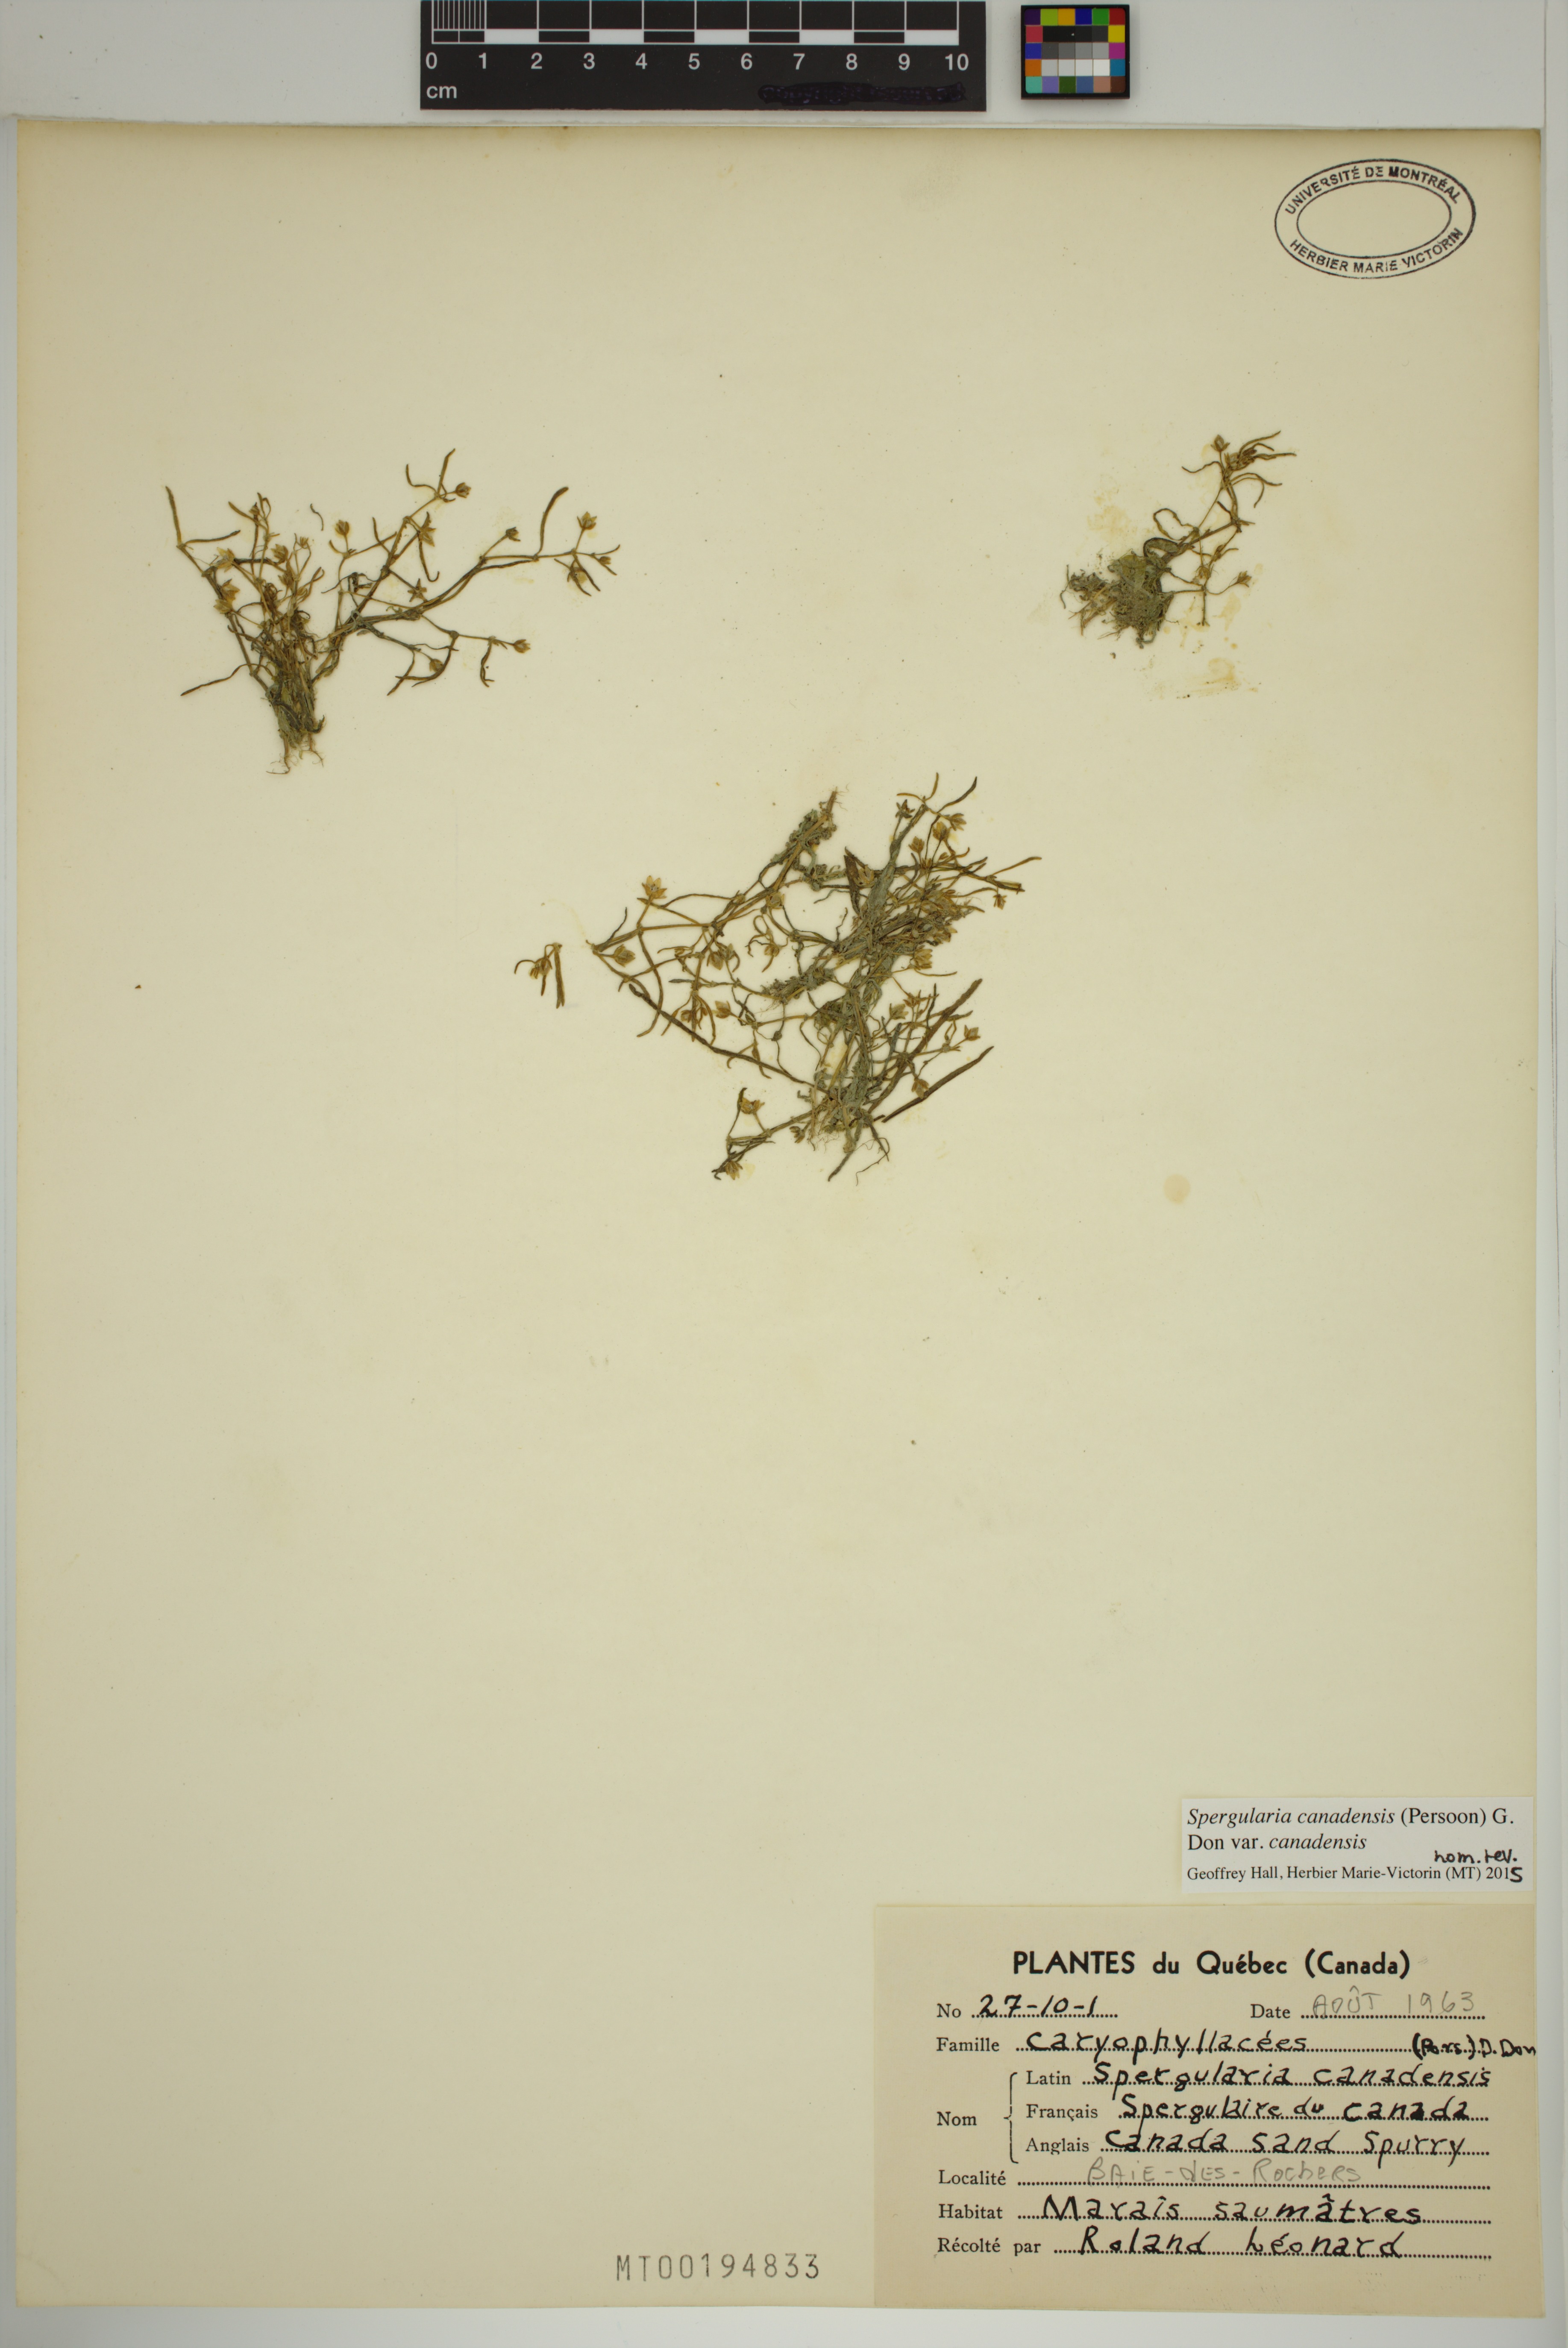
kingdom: Plantae
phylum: Tracheophyta
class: Magnoliopsida
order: Caryophyllales
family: Caryophyllaceae
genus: Spergularia
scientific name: Spergularia canadensis
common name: Canada sand-spurrey
